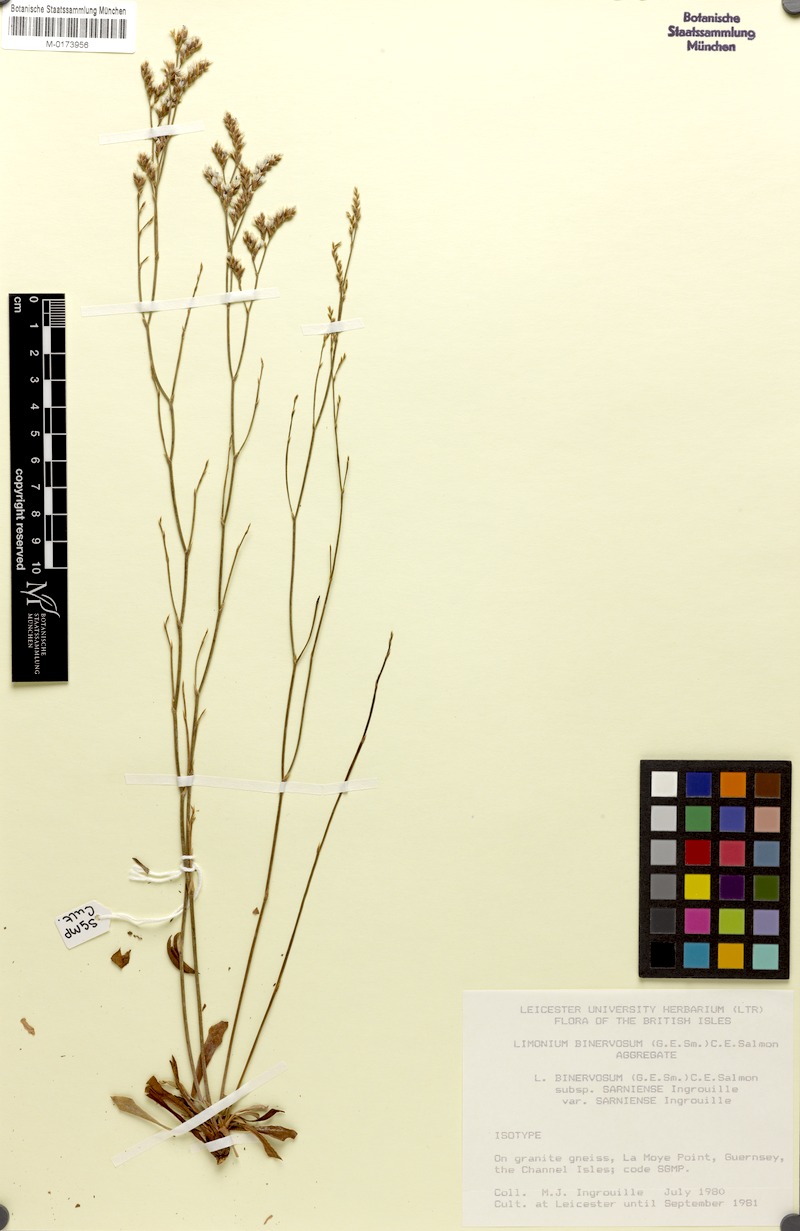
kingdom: Plantae
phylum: Tracheophyta
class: Magnoliopsida
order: Caryophyllales
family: Plumbaginaceae
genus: Limonium
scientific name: Limonium binervosum
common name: Rock sea-lavender
